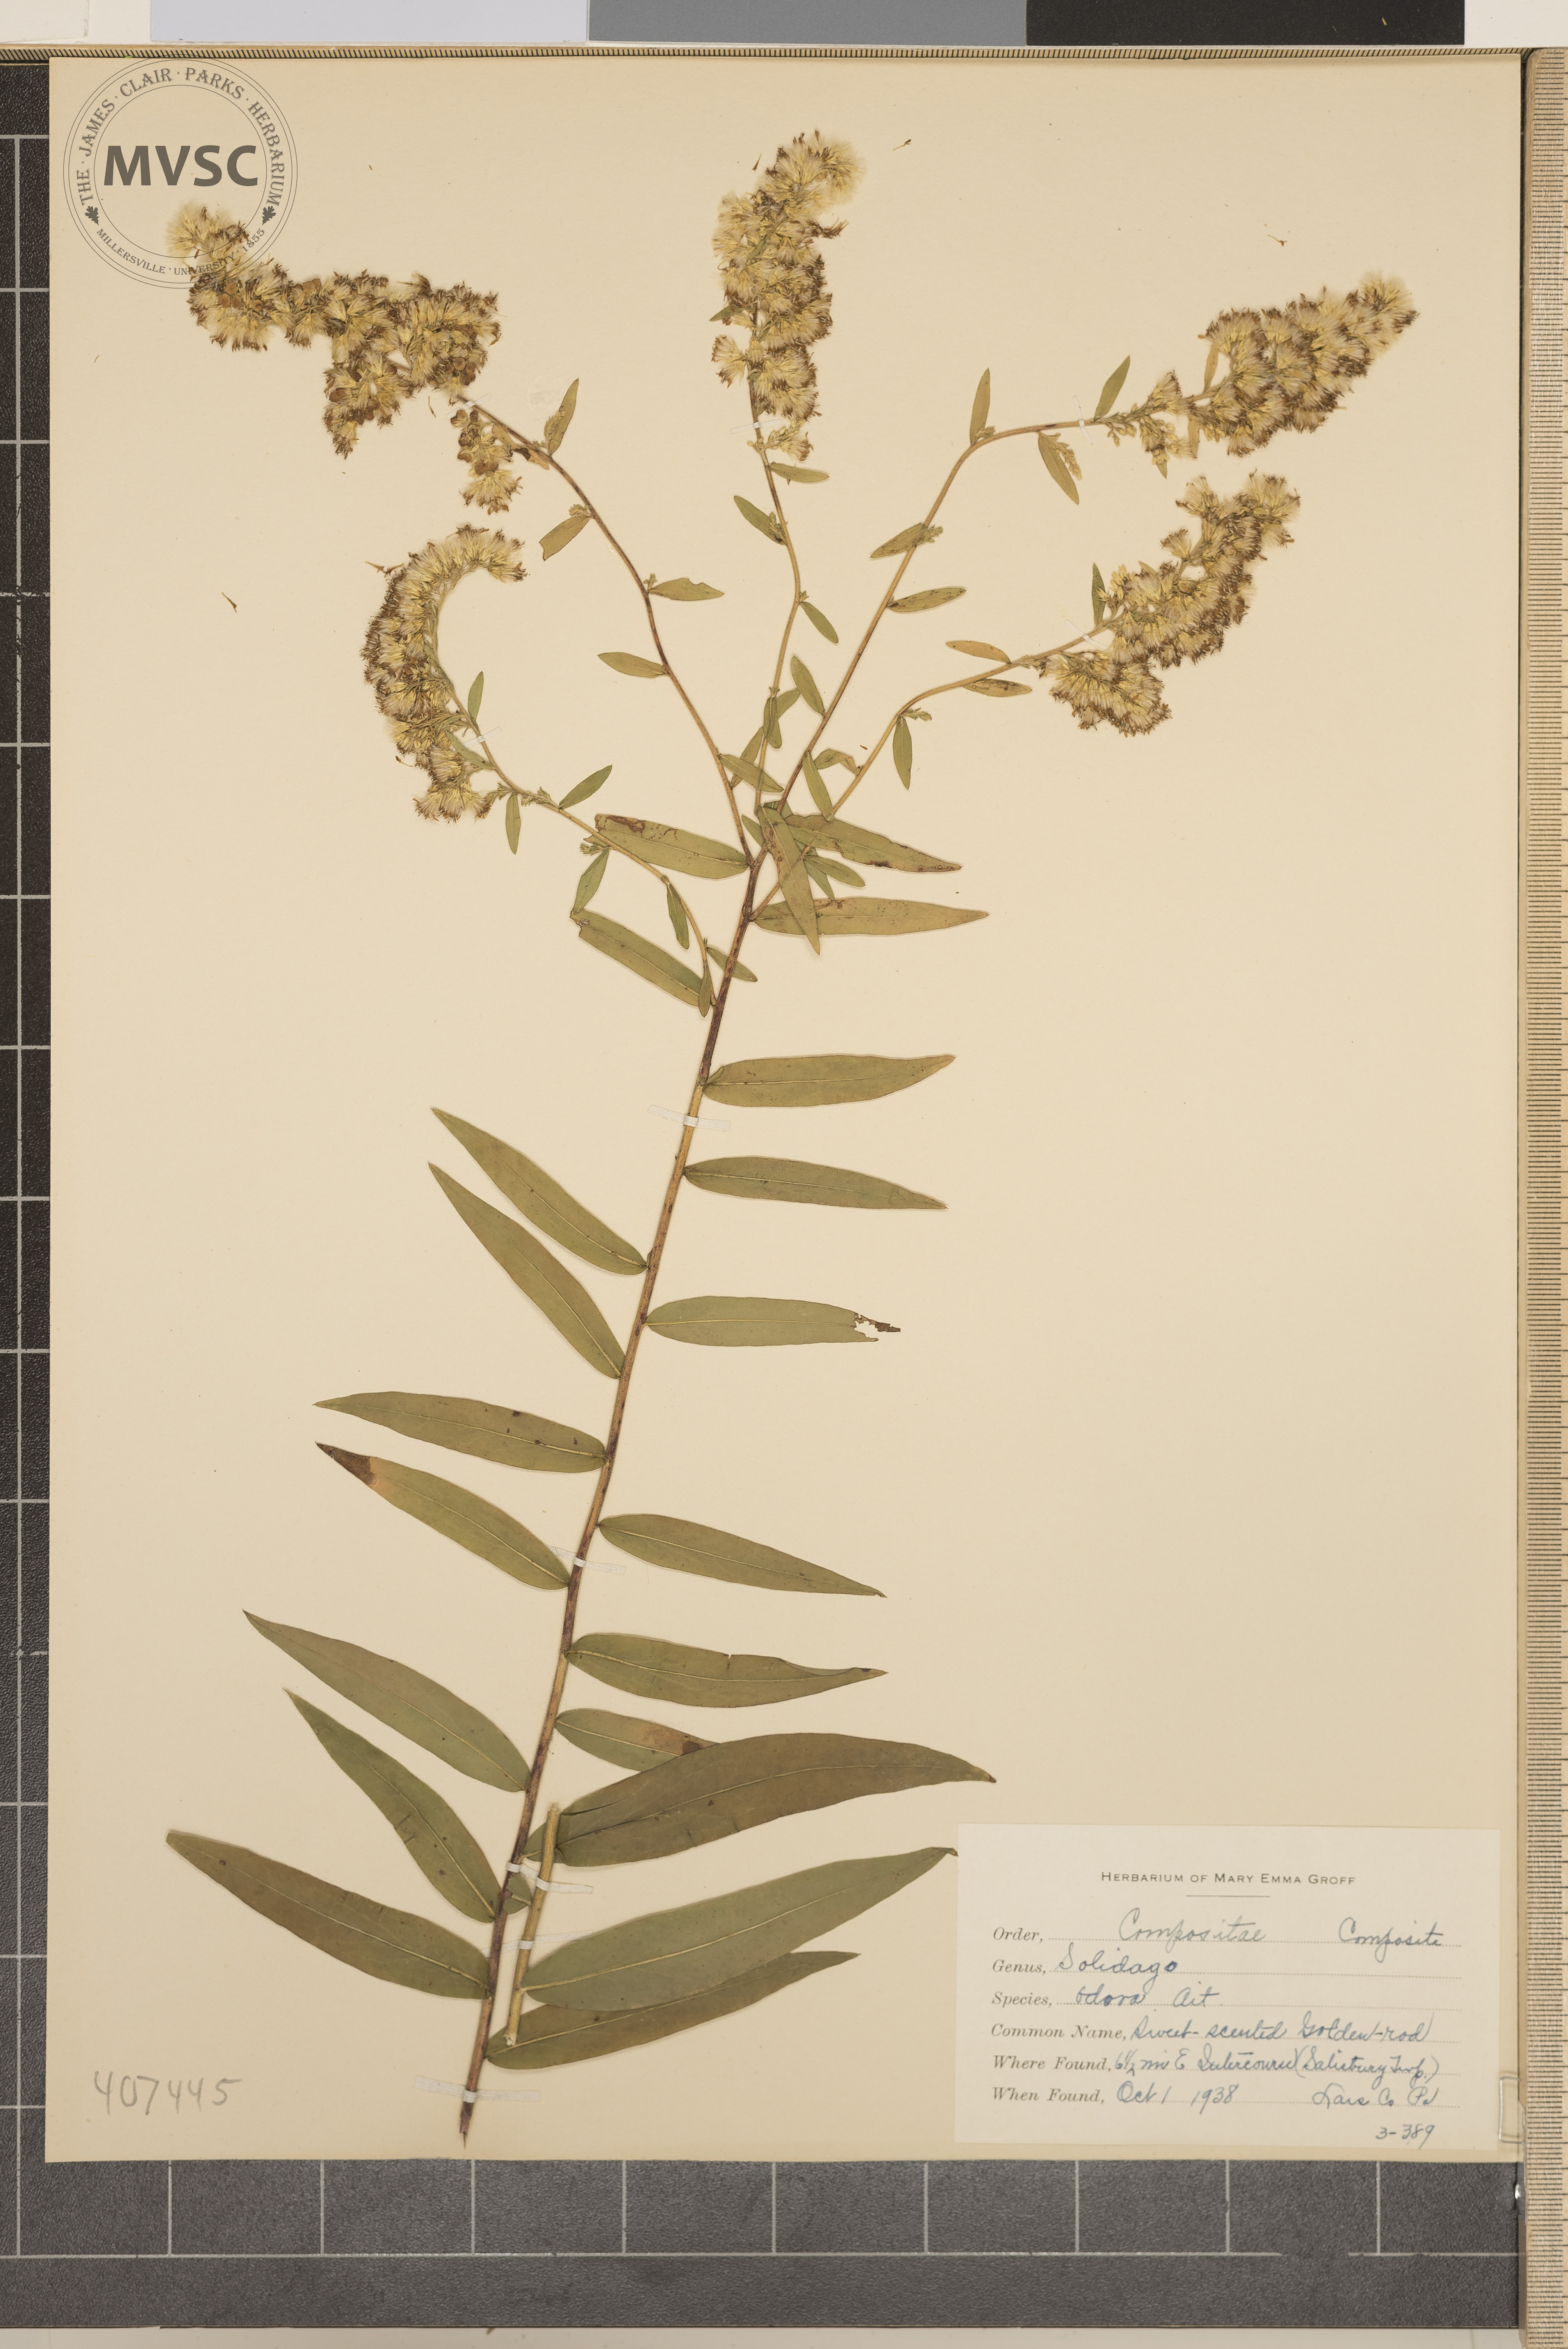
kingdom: Plantae
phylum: Tracheophyta
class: Magnoliopsida
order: Asterales
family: Asteraceae
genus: Solidago
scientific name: Solidago odora
